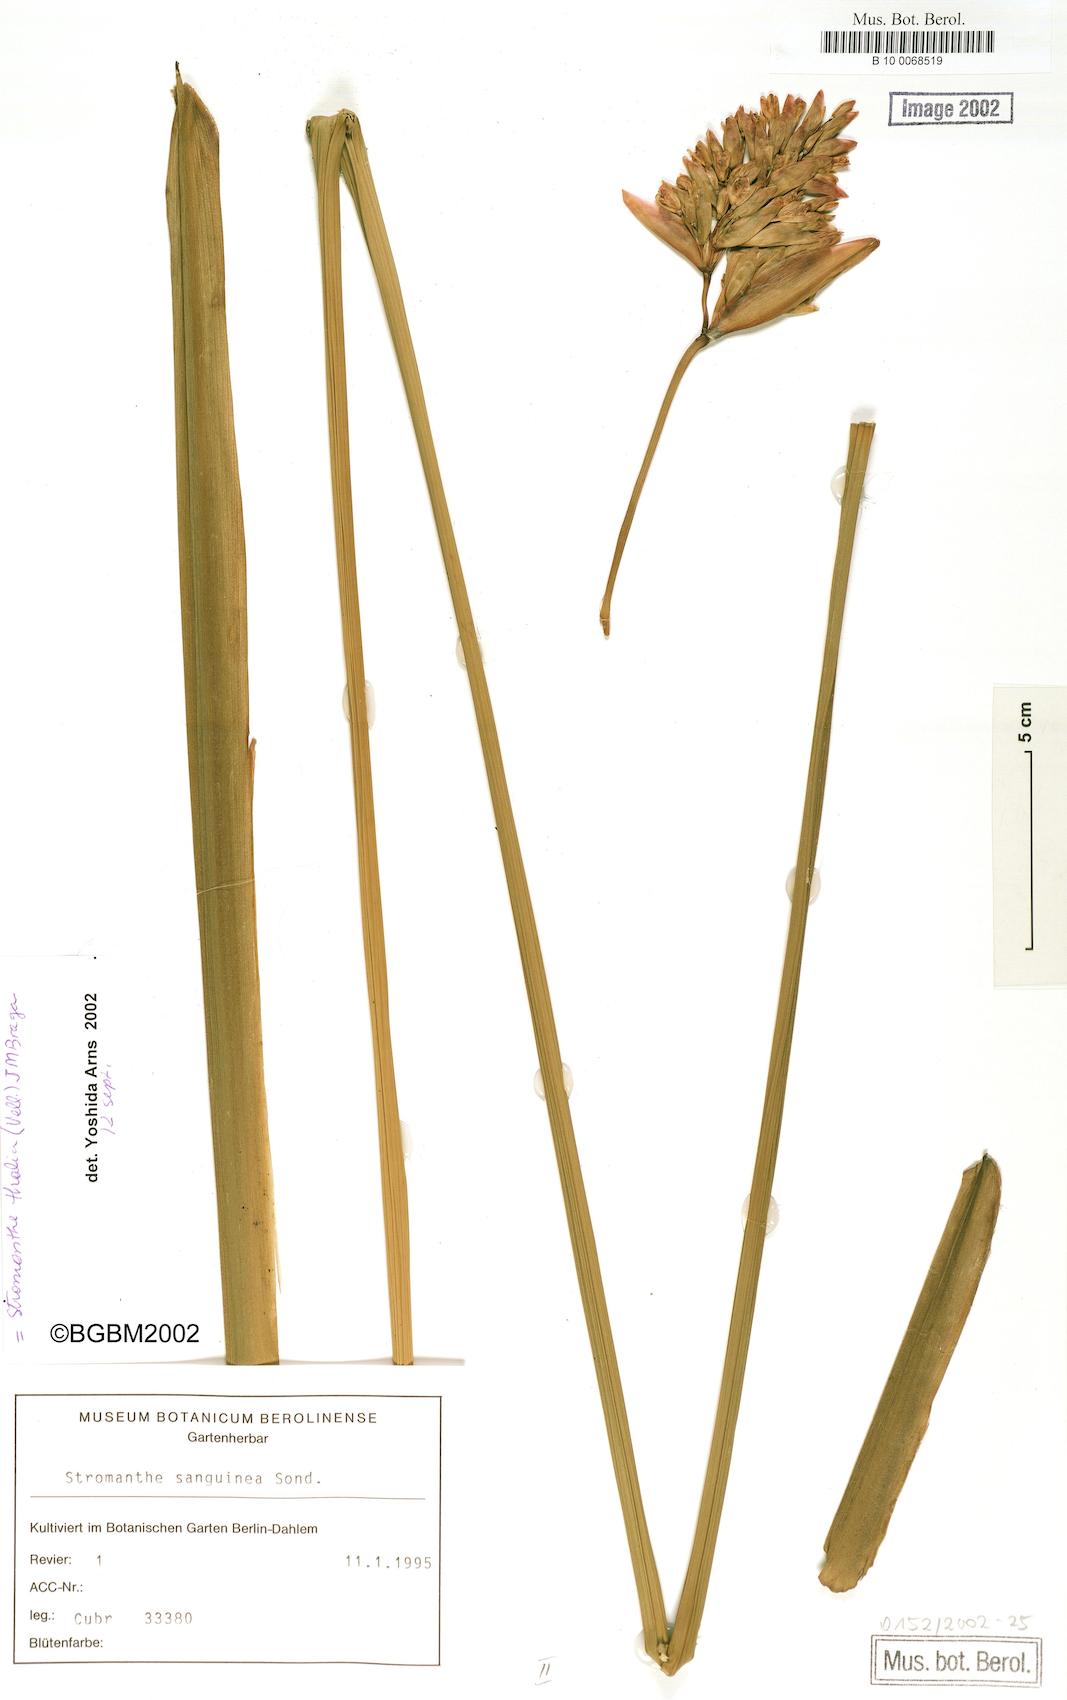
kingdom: Plantae
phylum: Tracheophyta
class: Liliopsida
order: Zingiberales
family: Marantaceae
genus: Stromanthe
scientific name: Stromanthe thalia
